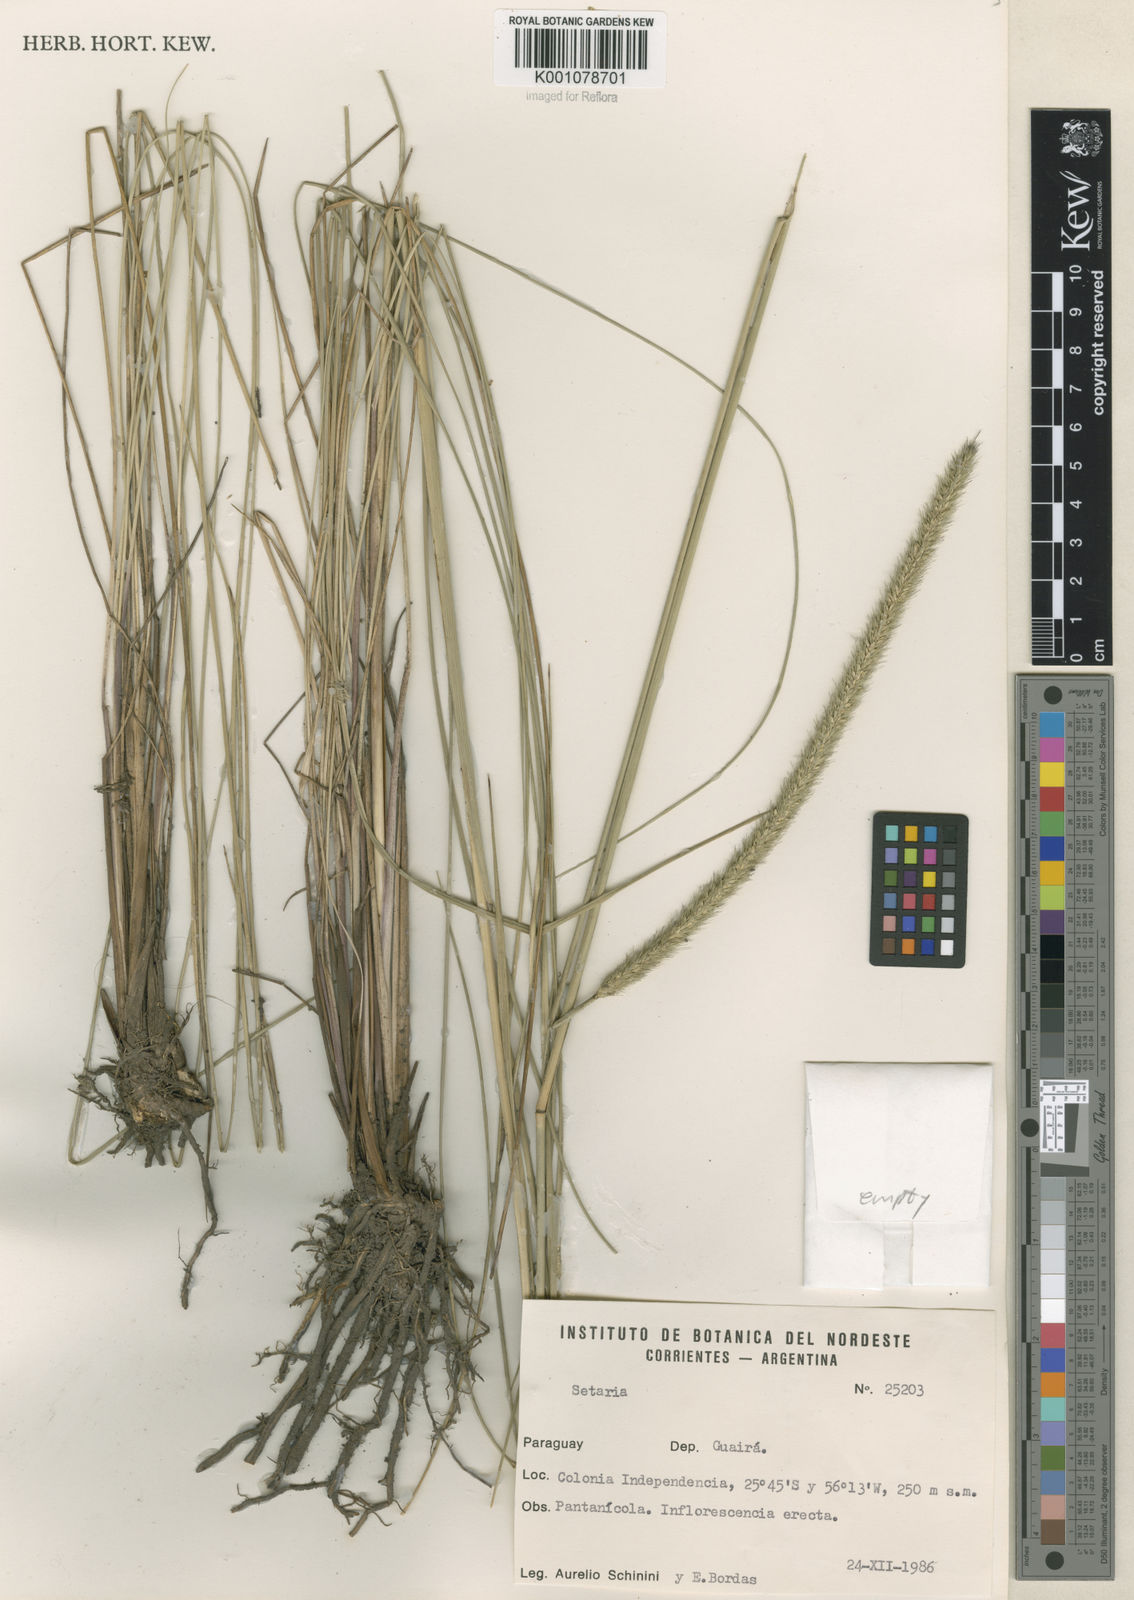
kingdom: Plantae
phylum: Tracheophyta
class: Liliopsida
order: Poales
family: Poaceae
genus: Setaria
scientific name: Setaria
